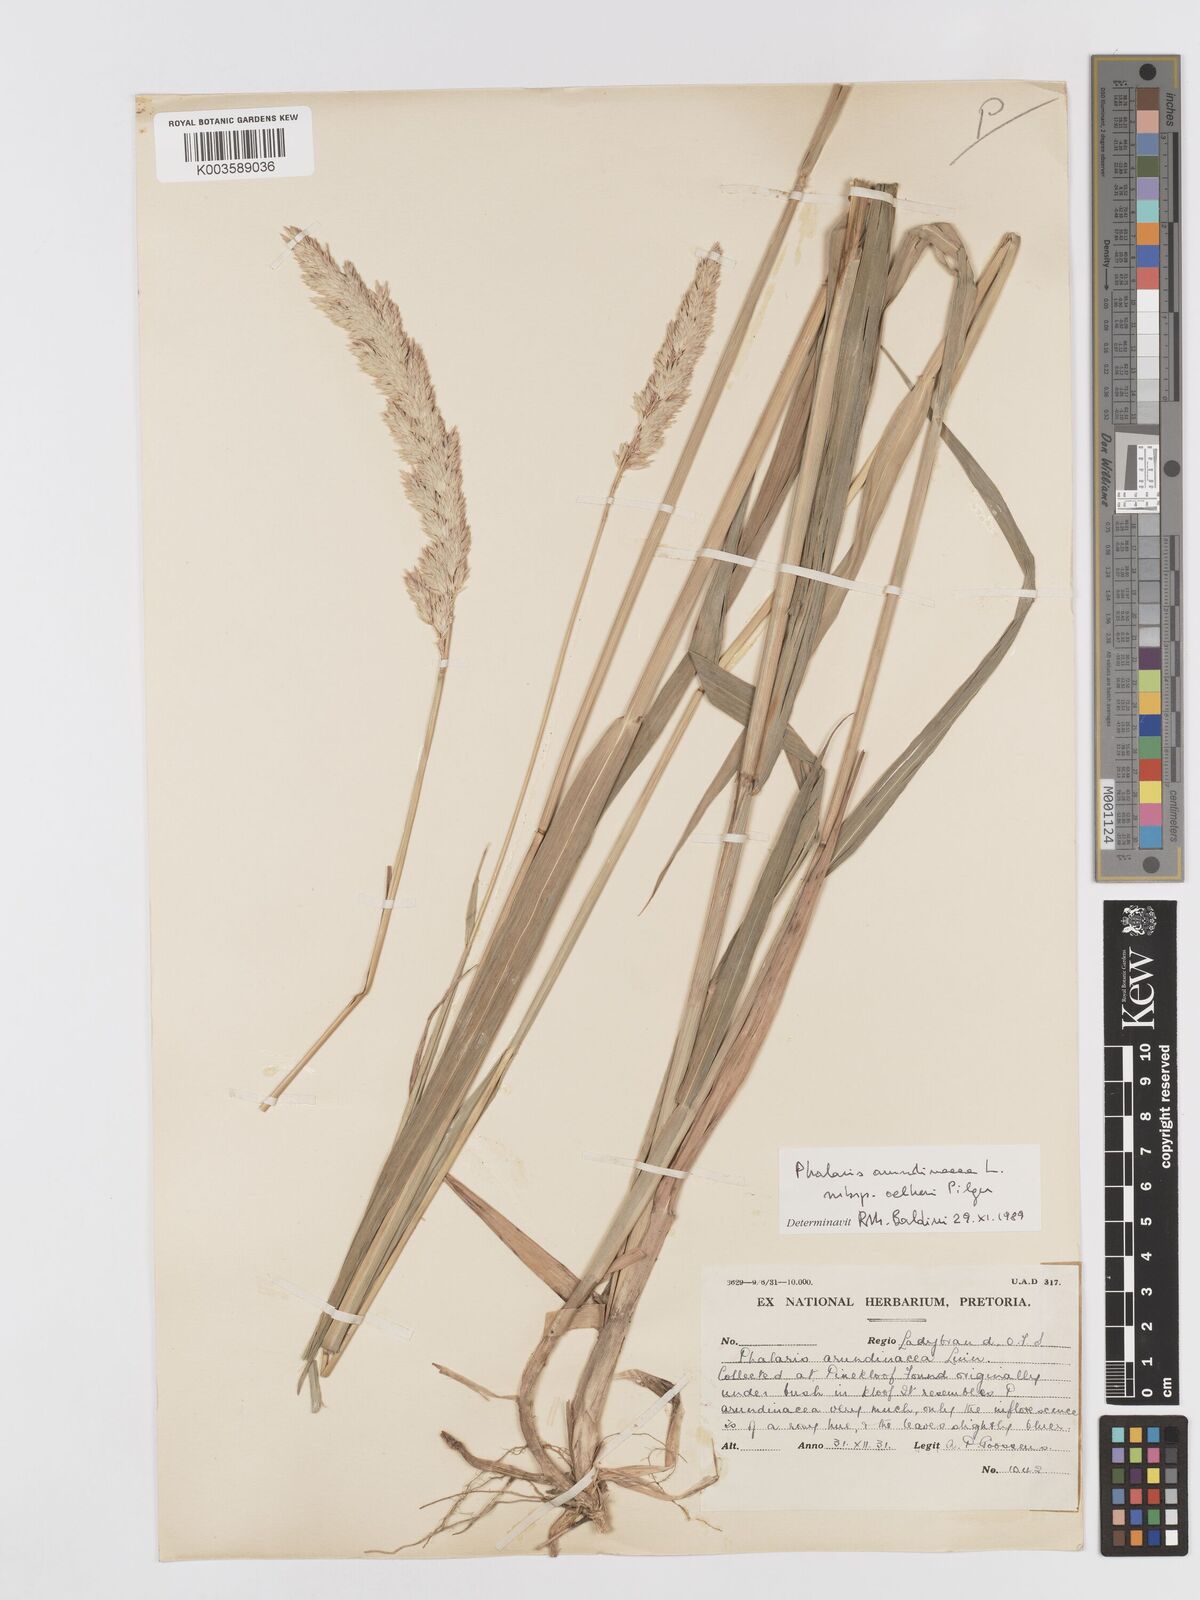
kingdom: Plantae
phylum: Tracheophyta
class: Liliopsida
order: Poales
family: Poaceae
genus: Phalaris
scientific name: Phalaris arundinacea
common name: Reed canary-grass
